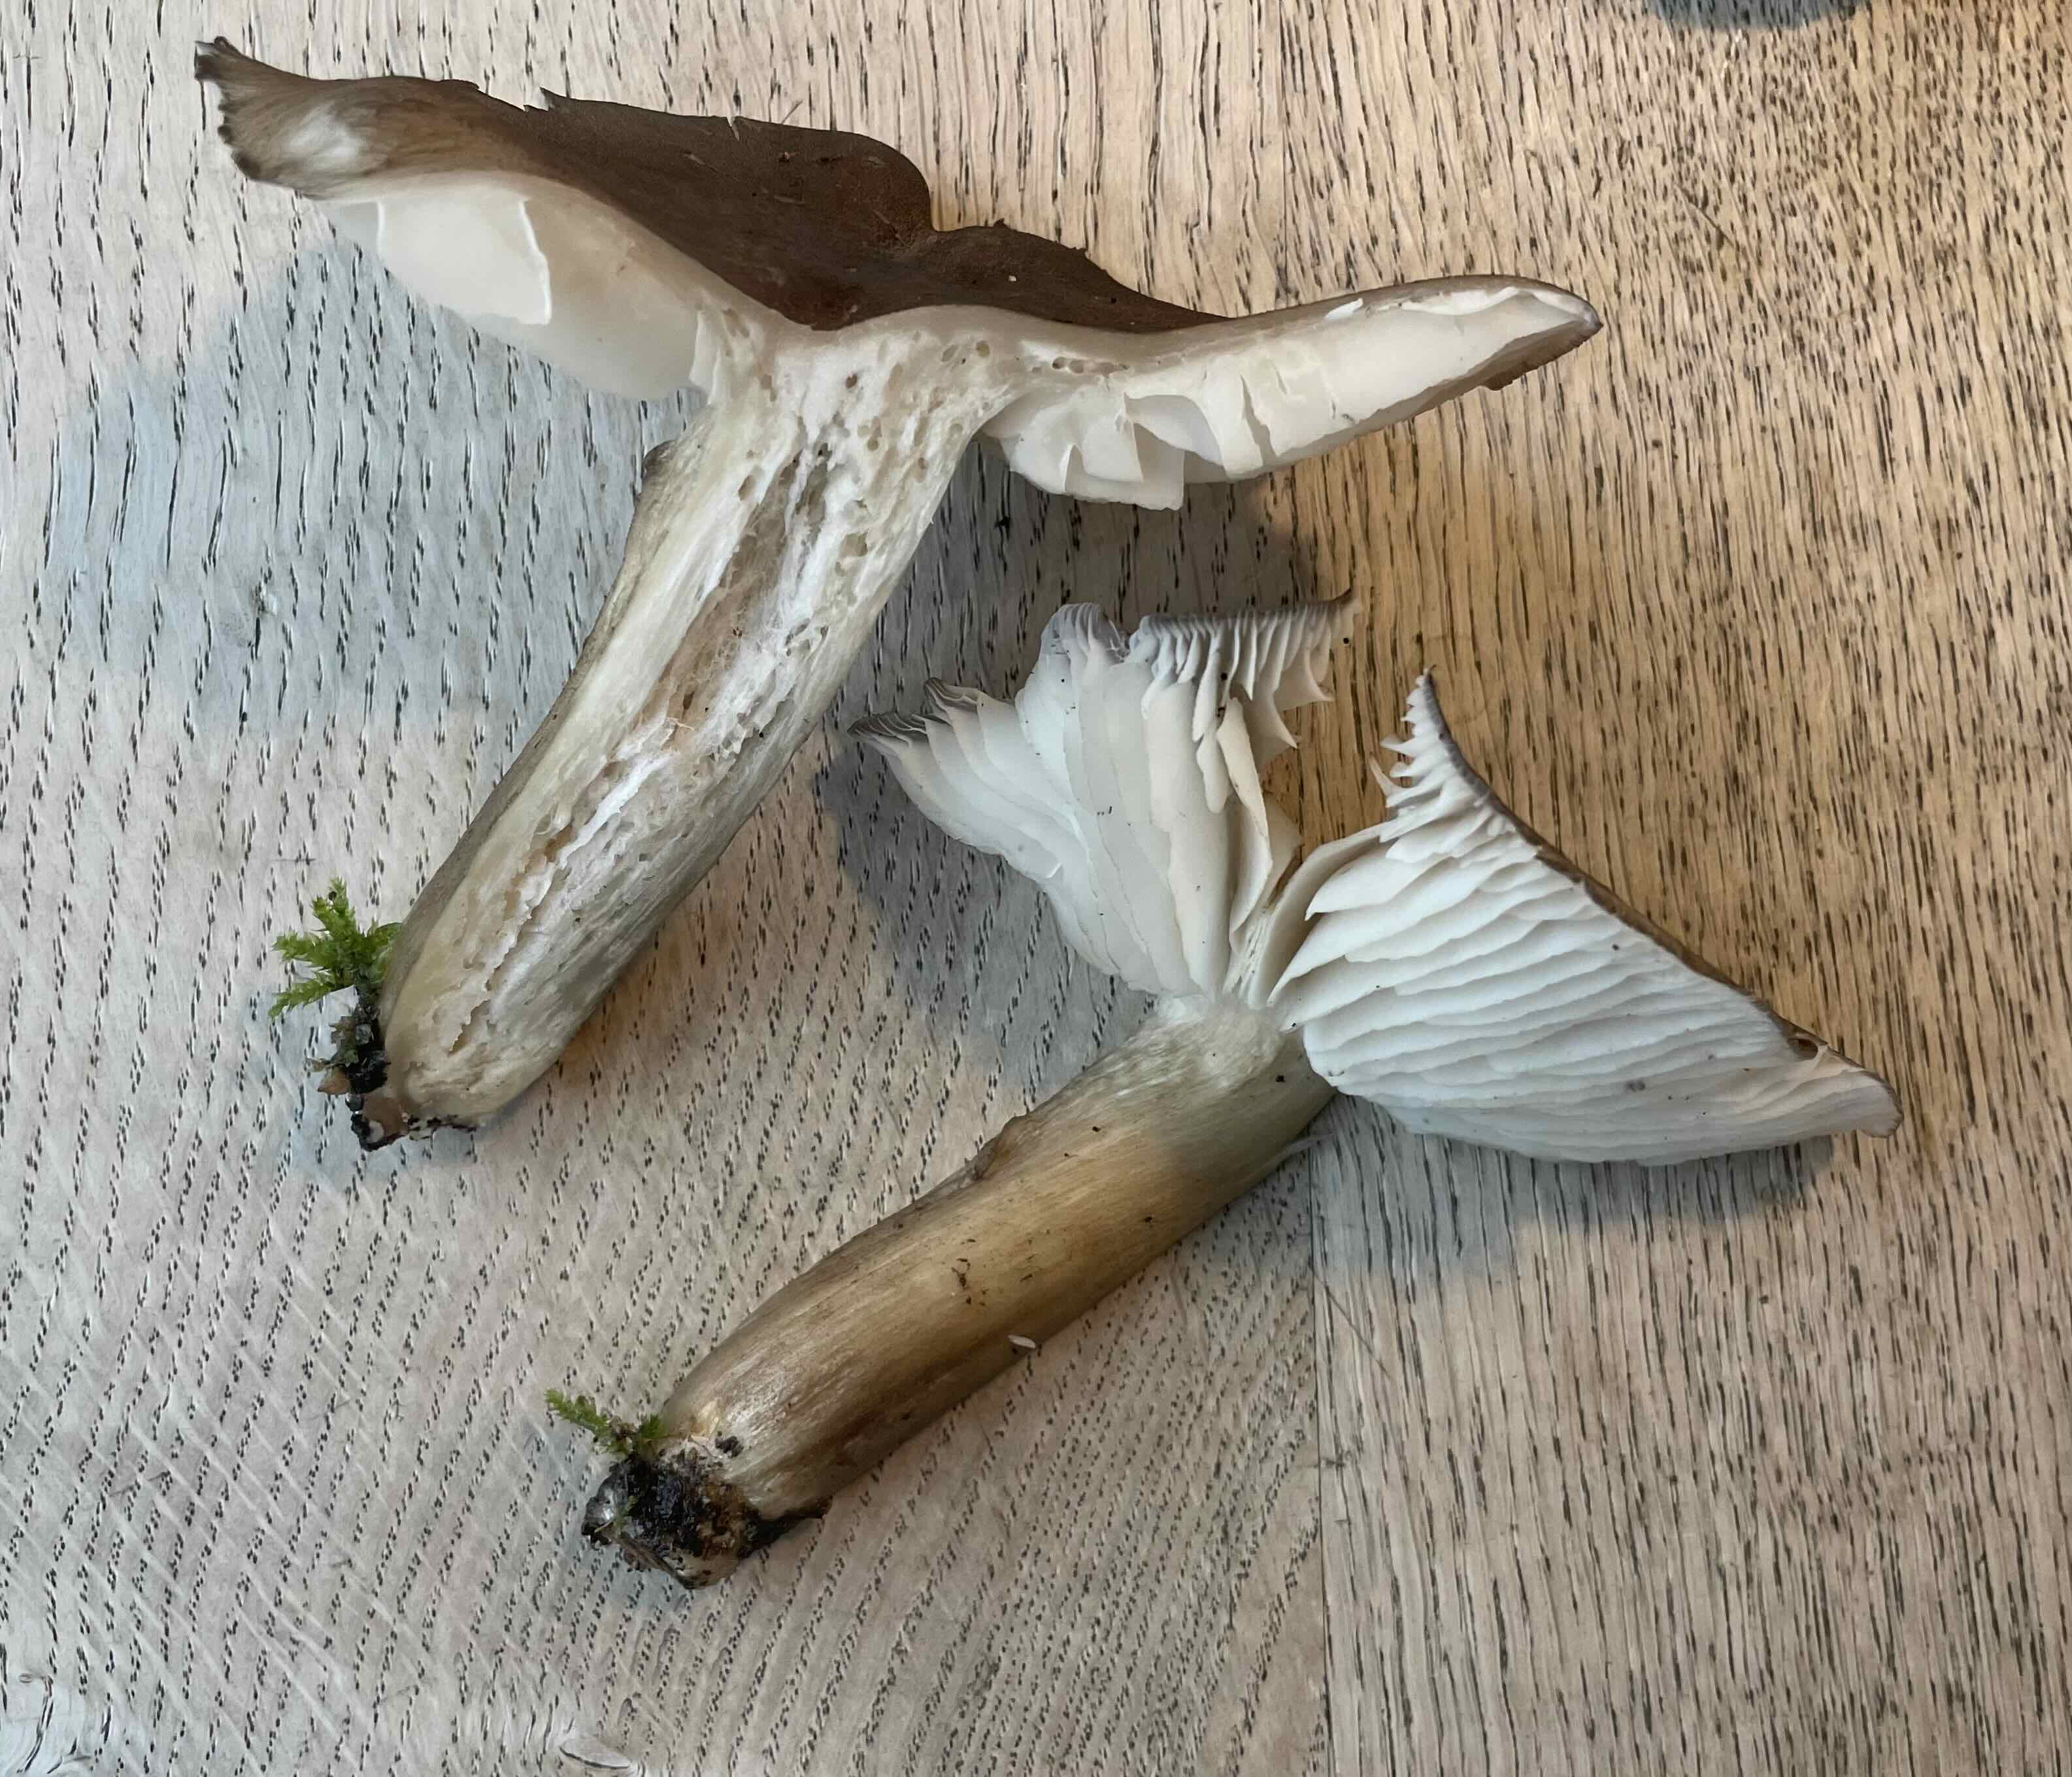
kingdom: Fungi
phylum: Basidiomycota
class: Agaricomycetes
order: Agaricales
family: Tricholomataceae
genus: Megacollybia
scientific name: Megacollybia platyphylla
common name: bredbladet væbnerhat
